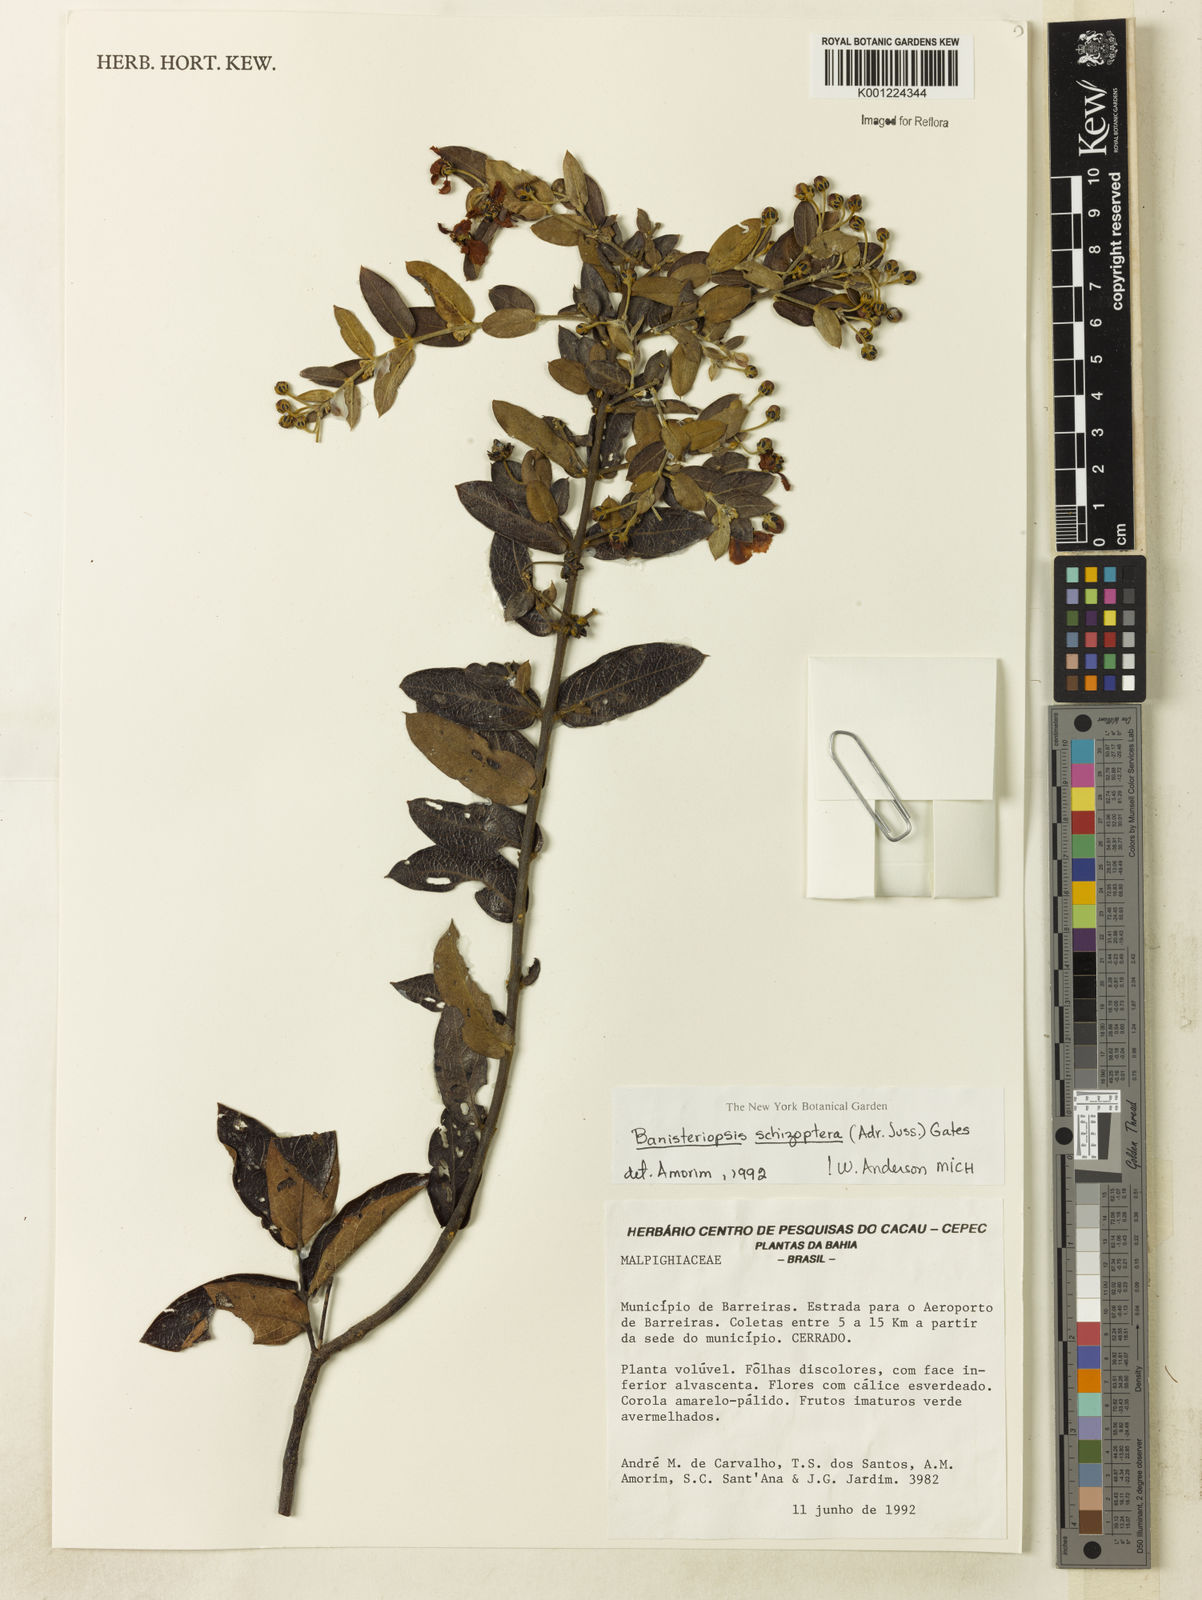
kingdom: Plantae
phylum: Tracheophyta
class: Magnoliopsida
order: Malpighiales
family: Malpighiaceae
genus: Banisteriopsis
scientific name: Banisteriopsis schizoptera
